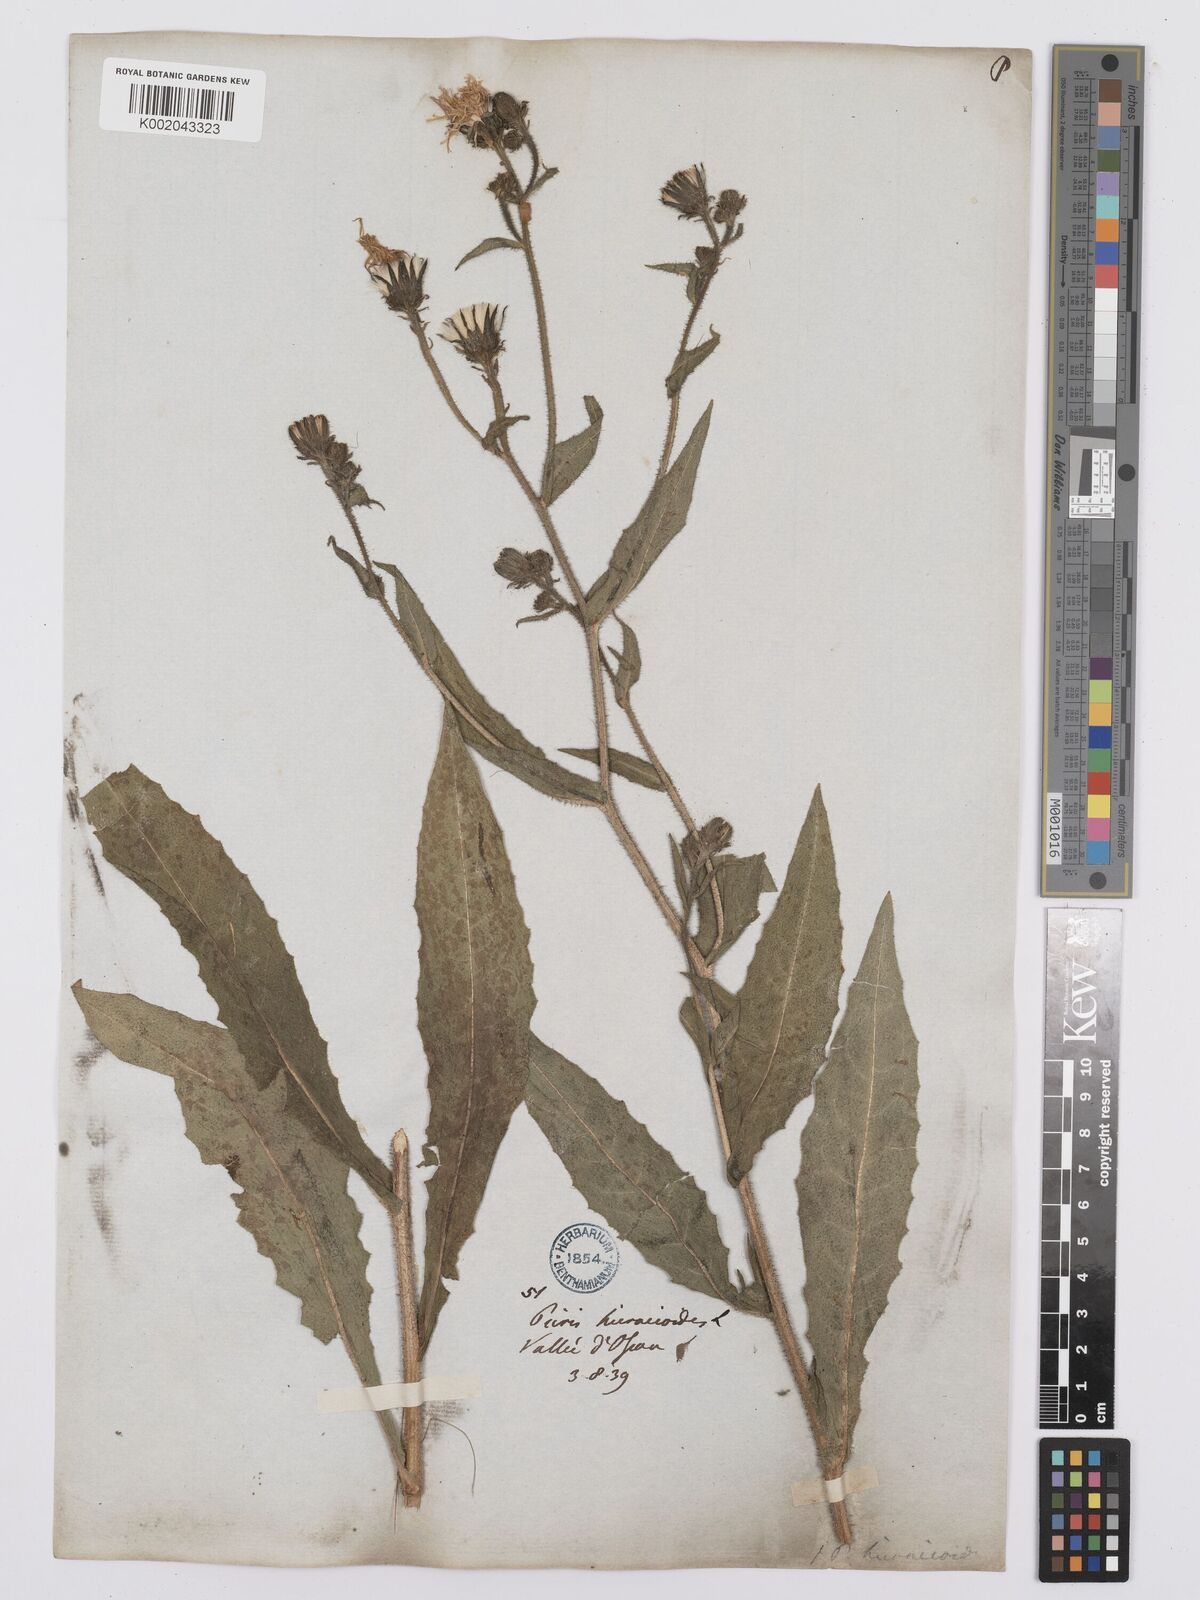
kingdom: Plantae
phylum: Tracheophyta
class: Magnoliopsida
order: Asterales
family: Asteraceae
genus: Picris
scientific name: Picris hieracioides
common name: Hawkweed oxtongue
